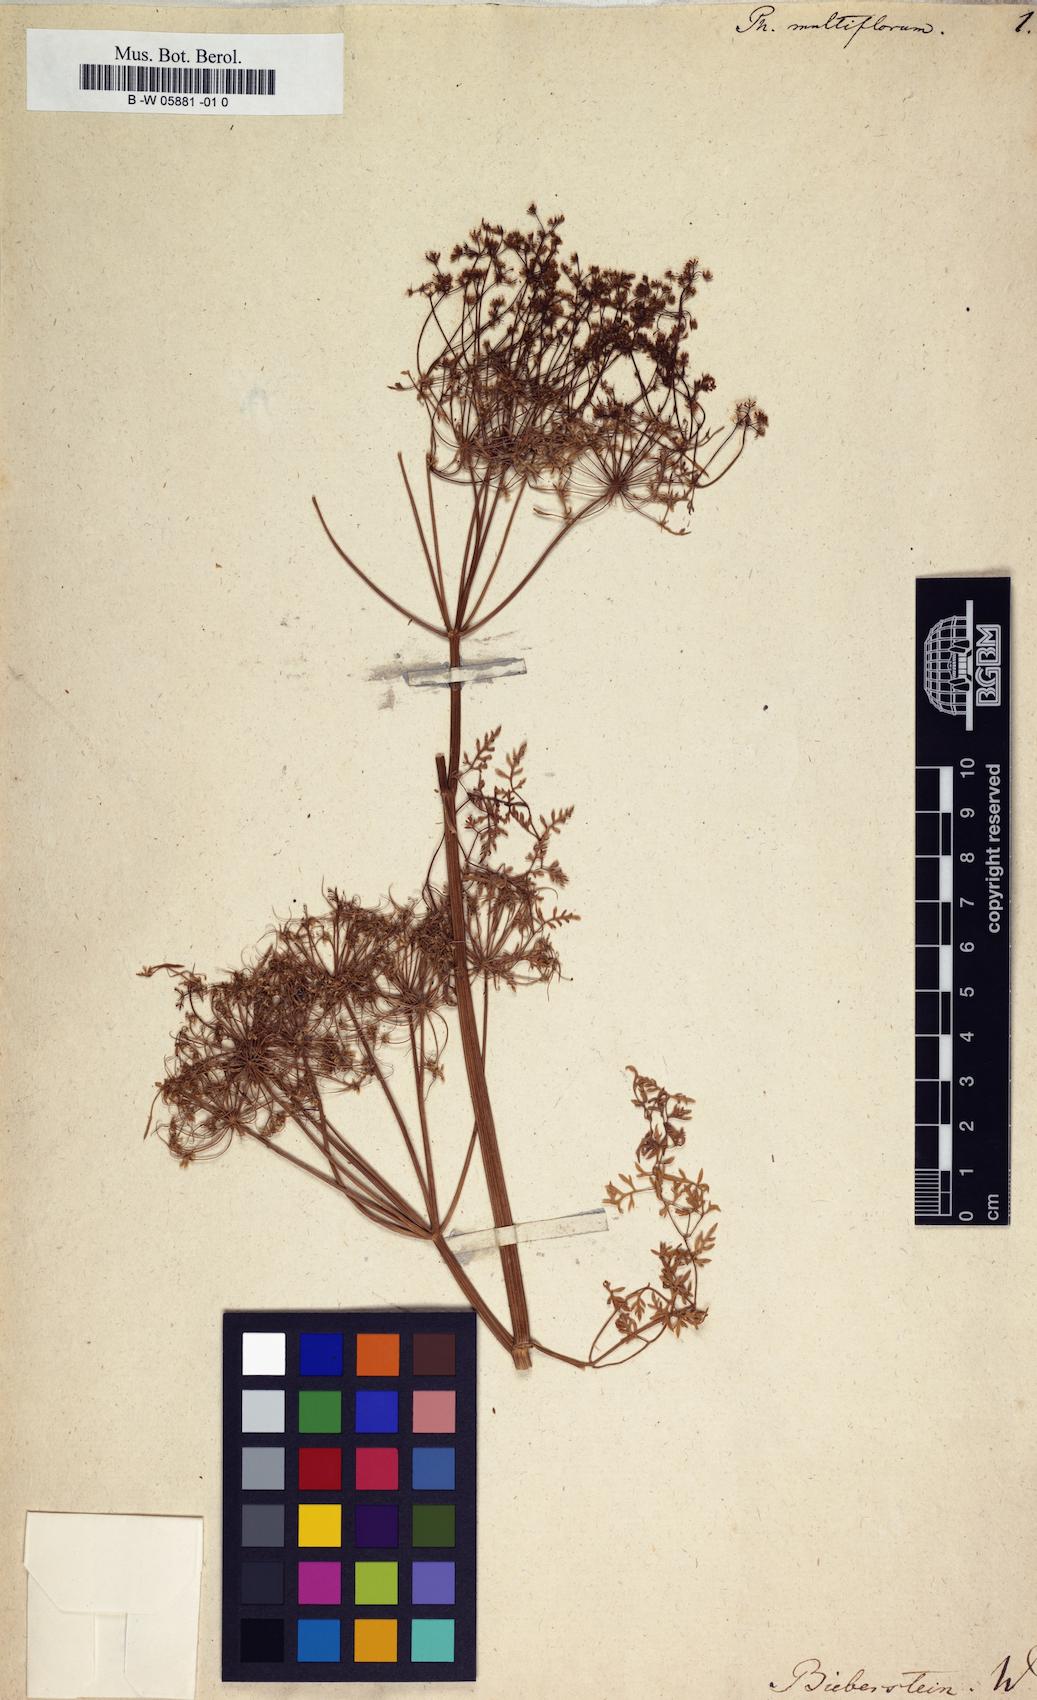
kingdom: Plantae
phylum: Tracheophyta
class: Magnoliopsida
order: Apiales
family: Apiaceae
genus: Oenanthe
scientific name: Oenanthe
